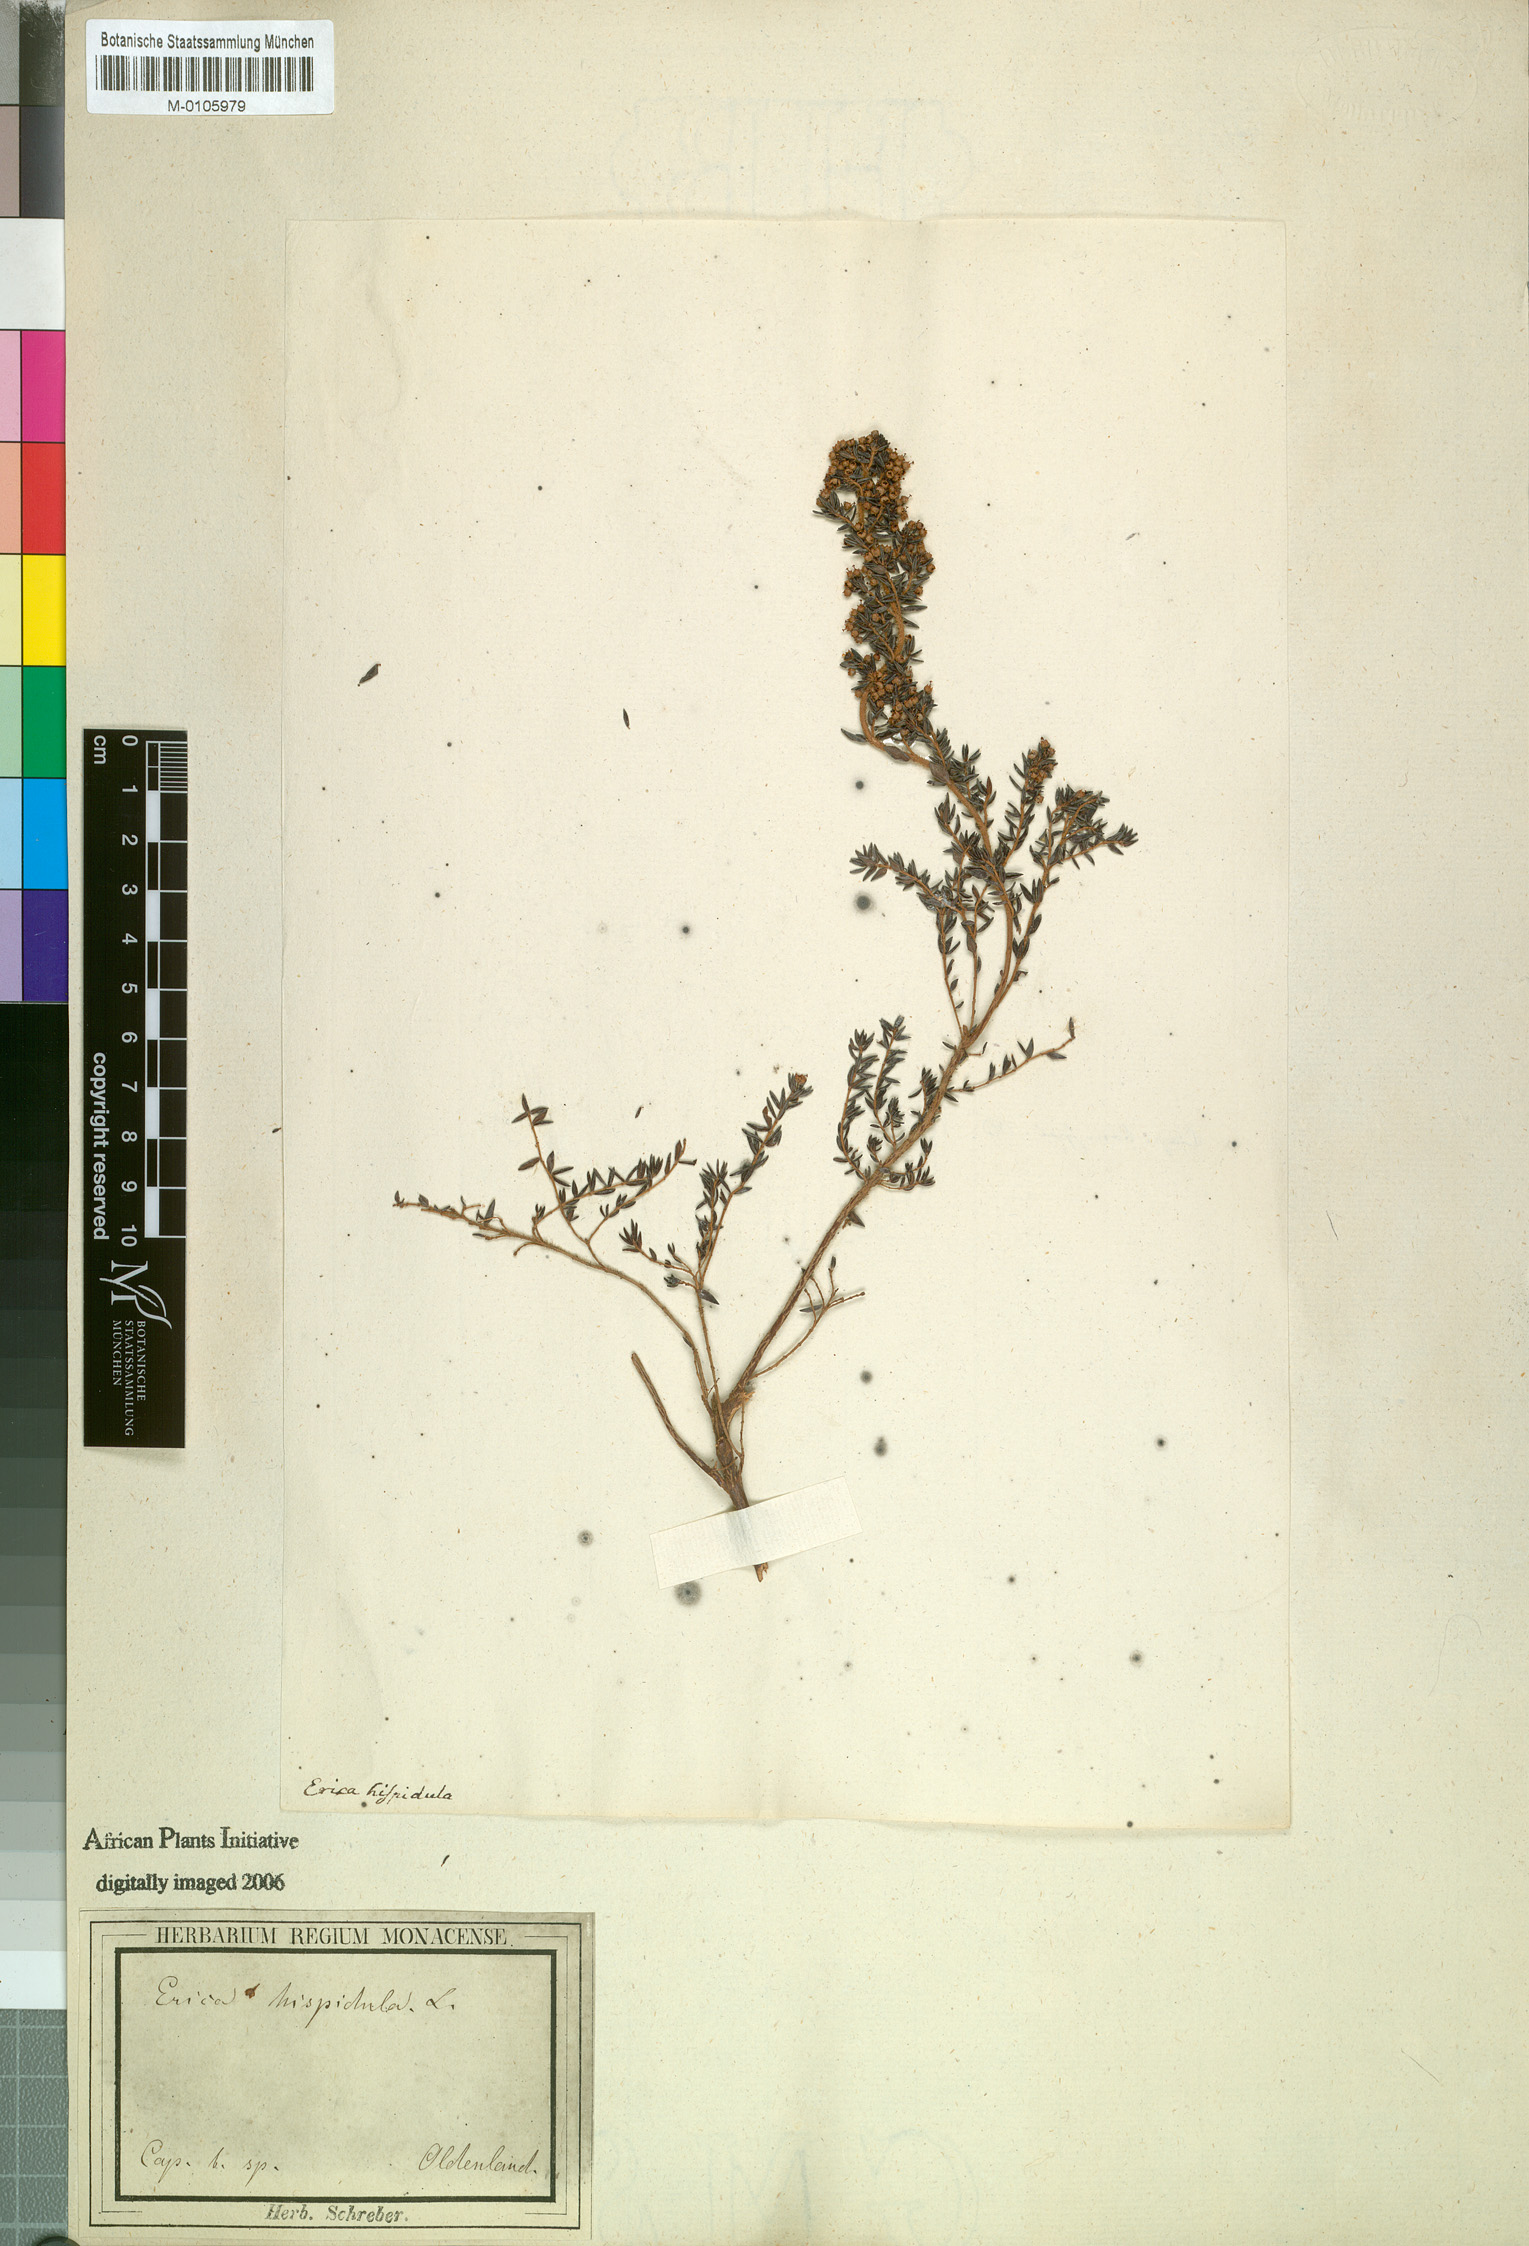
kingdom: Plantae
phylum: Tracheophyta
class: Magnoliopsida
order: Ericales
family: Ericaceae
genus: Erica
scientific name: Erica hispidula
